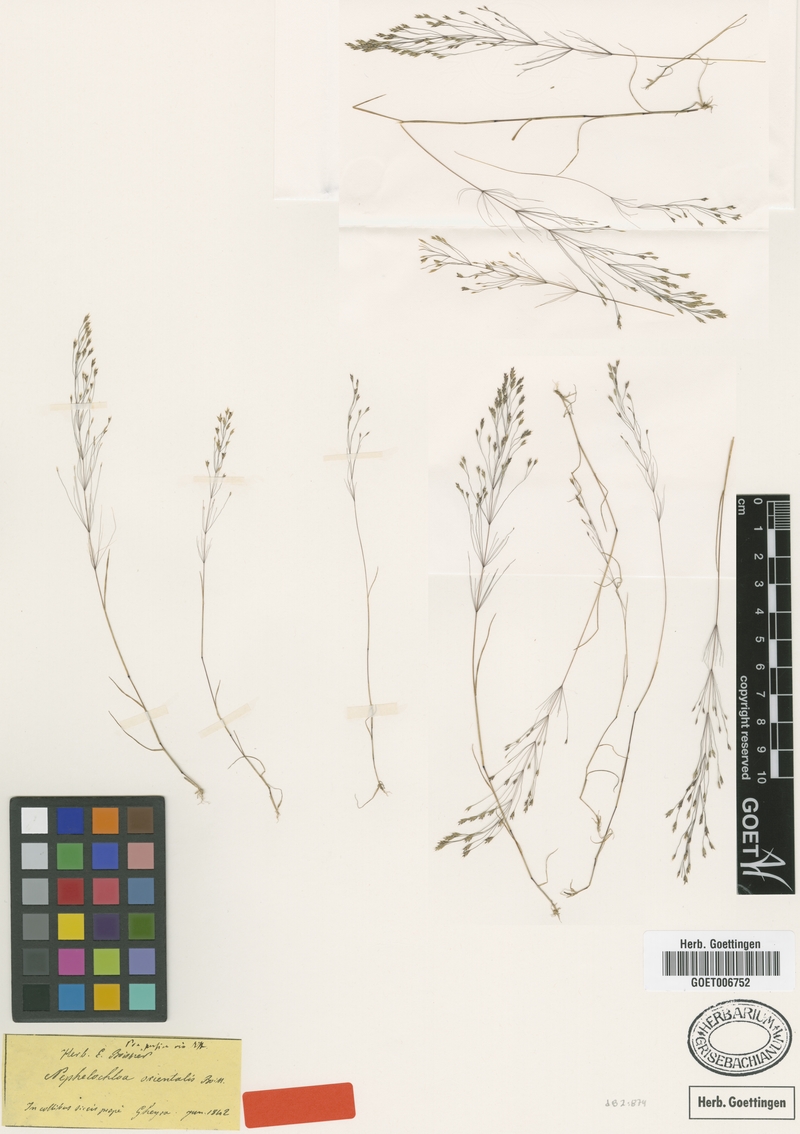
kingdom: Plantae
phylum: Tracheophyta
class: Liliopsida
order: Poales
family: Poaceae
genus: Nephelochloa
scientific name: Nephelochloa orientalis
